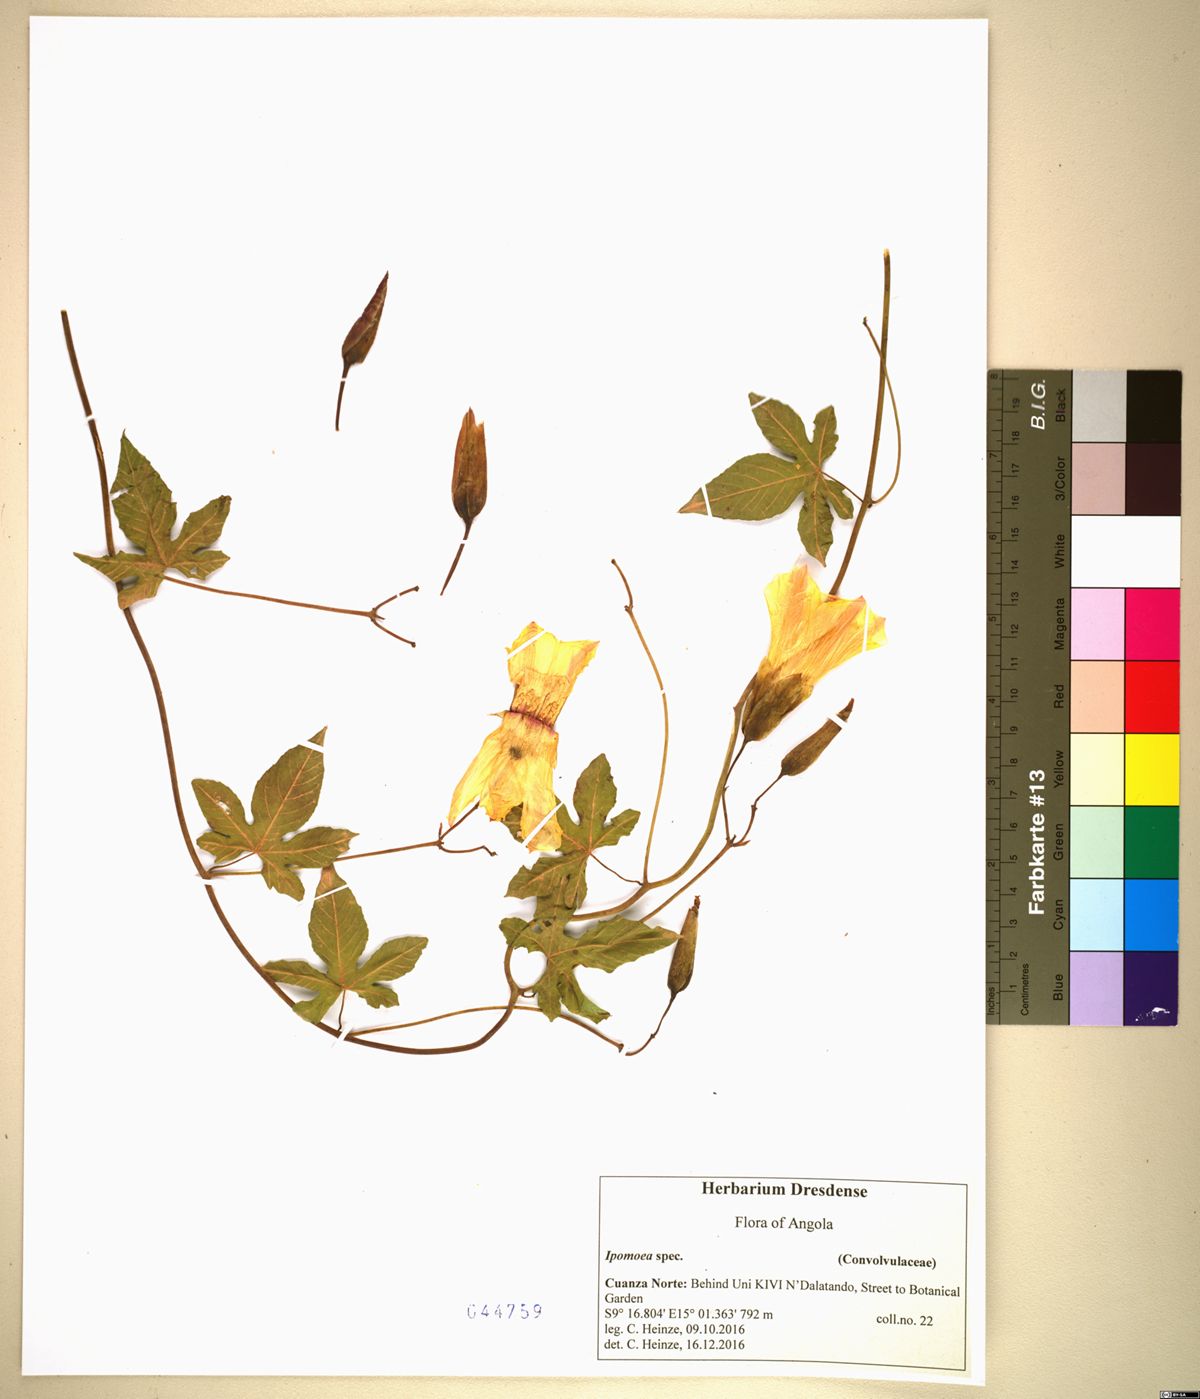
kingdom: Plantae
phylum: Tracheophyta
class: Magnoliopsida
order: Solanales
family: Convolvulaceae
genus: Distimake
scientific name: Distimake dissectus
